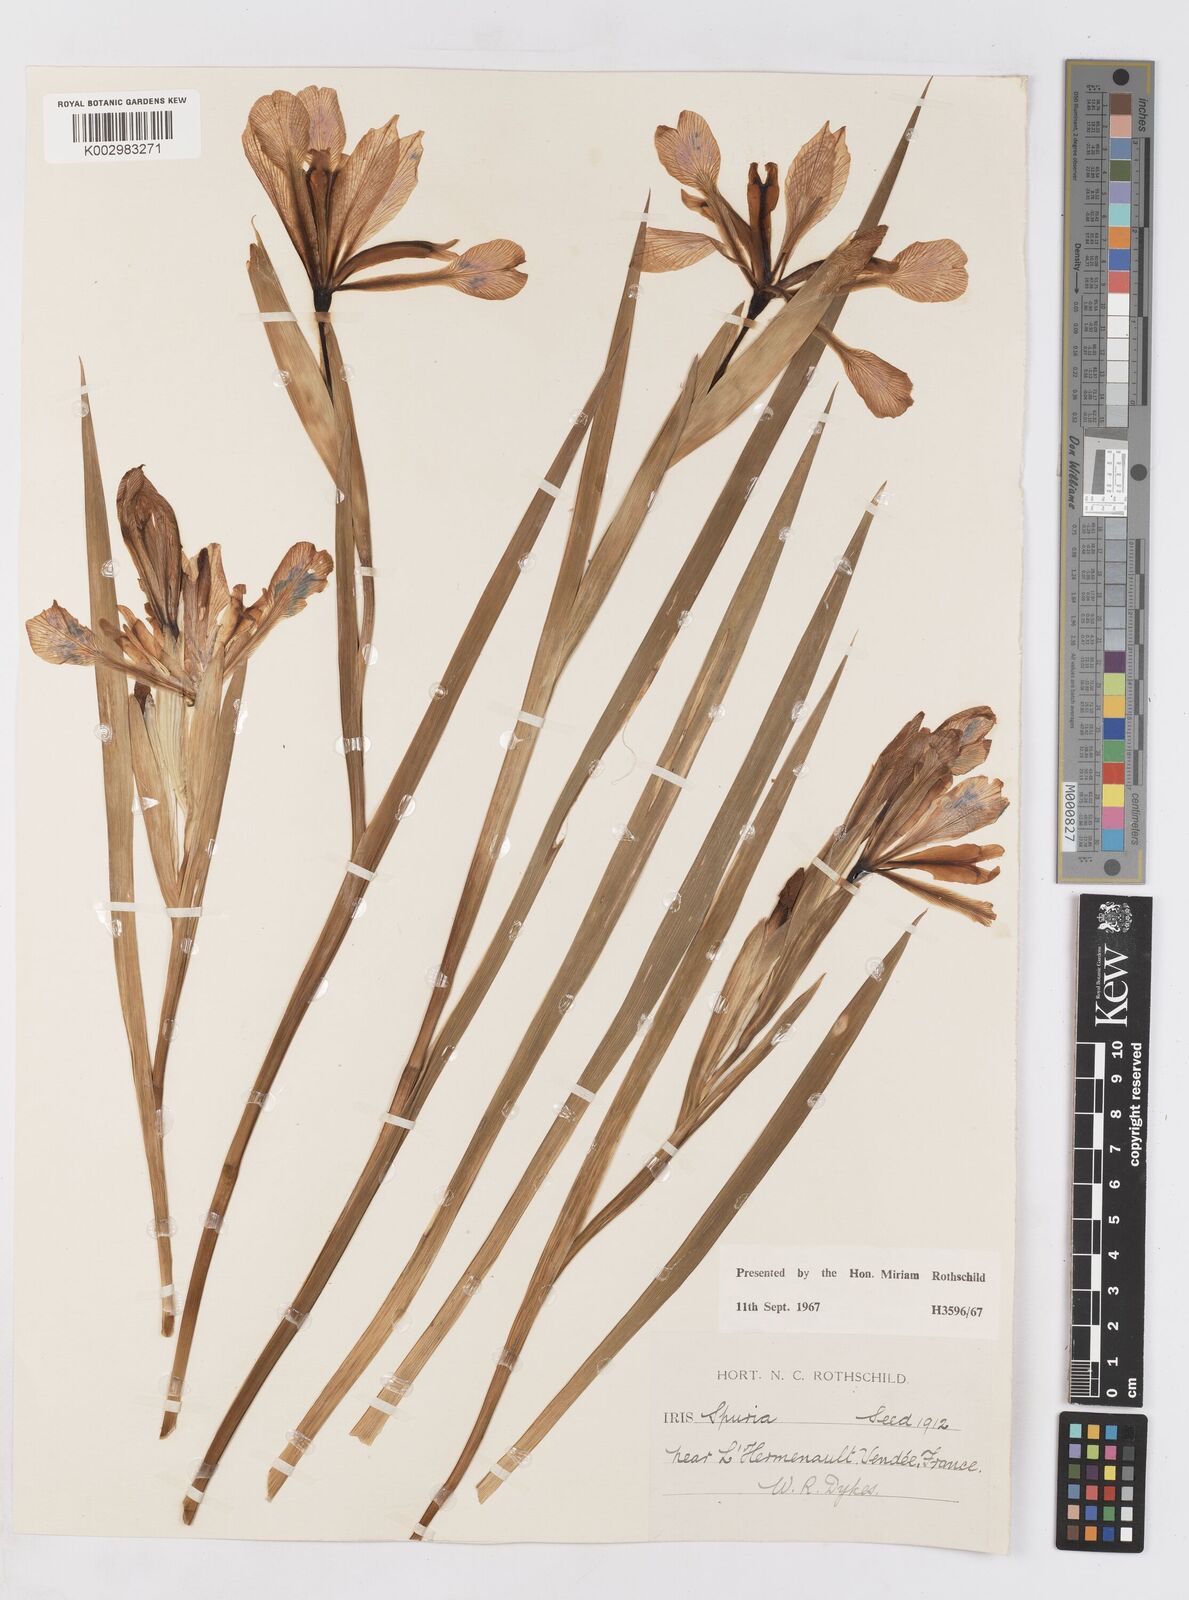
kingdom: Plantae
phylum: Tracheophyta
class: Liliopsida
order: Asparagales
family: Iridaceae
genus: Iris
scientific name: Iris spuria
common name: Blue iris
